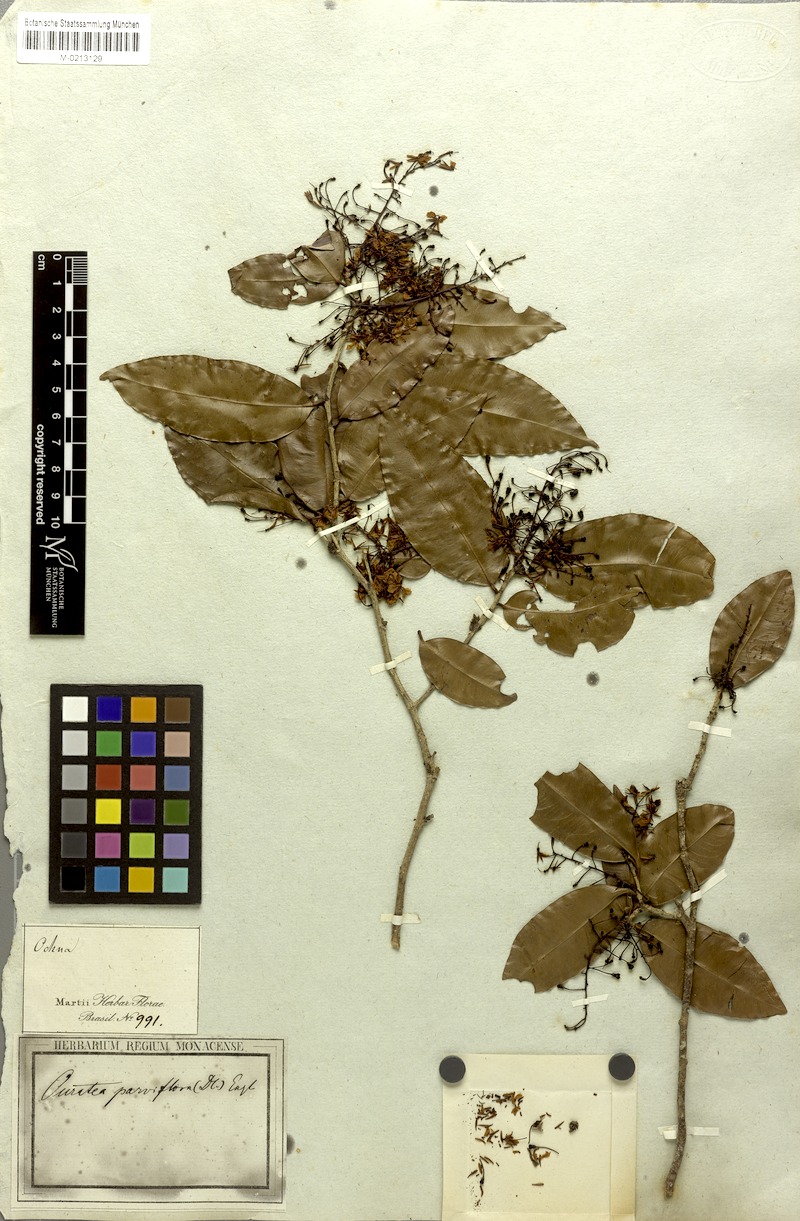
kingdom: Plantae
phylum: Tracheophyta
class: Magnoliopsida
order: Malpighiales
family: Ochnaceae
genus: Ouratea
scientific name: Ouratea parviflora
